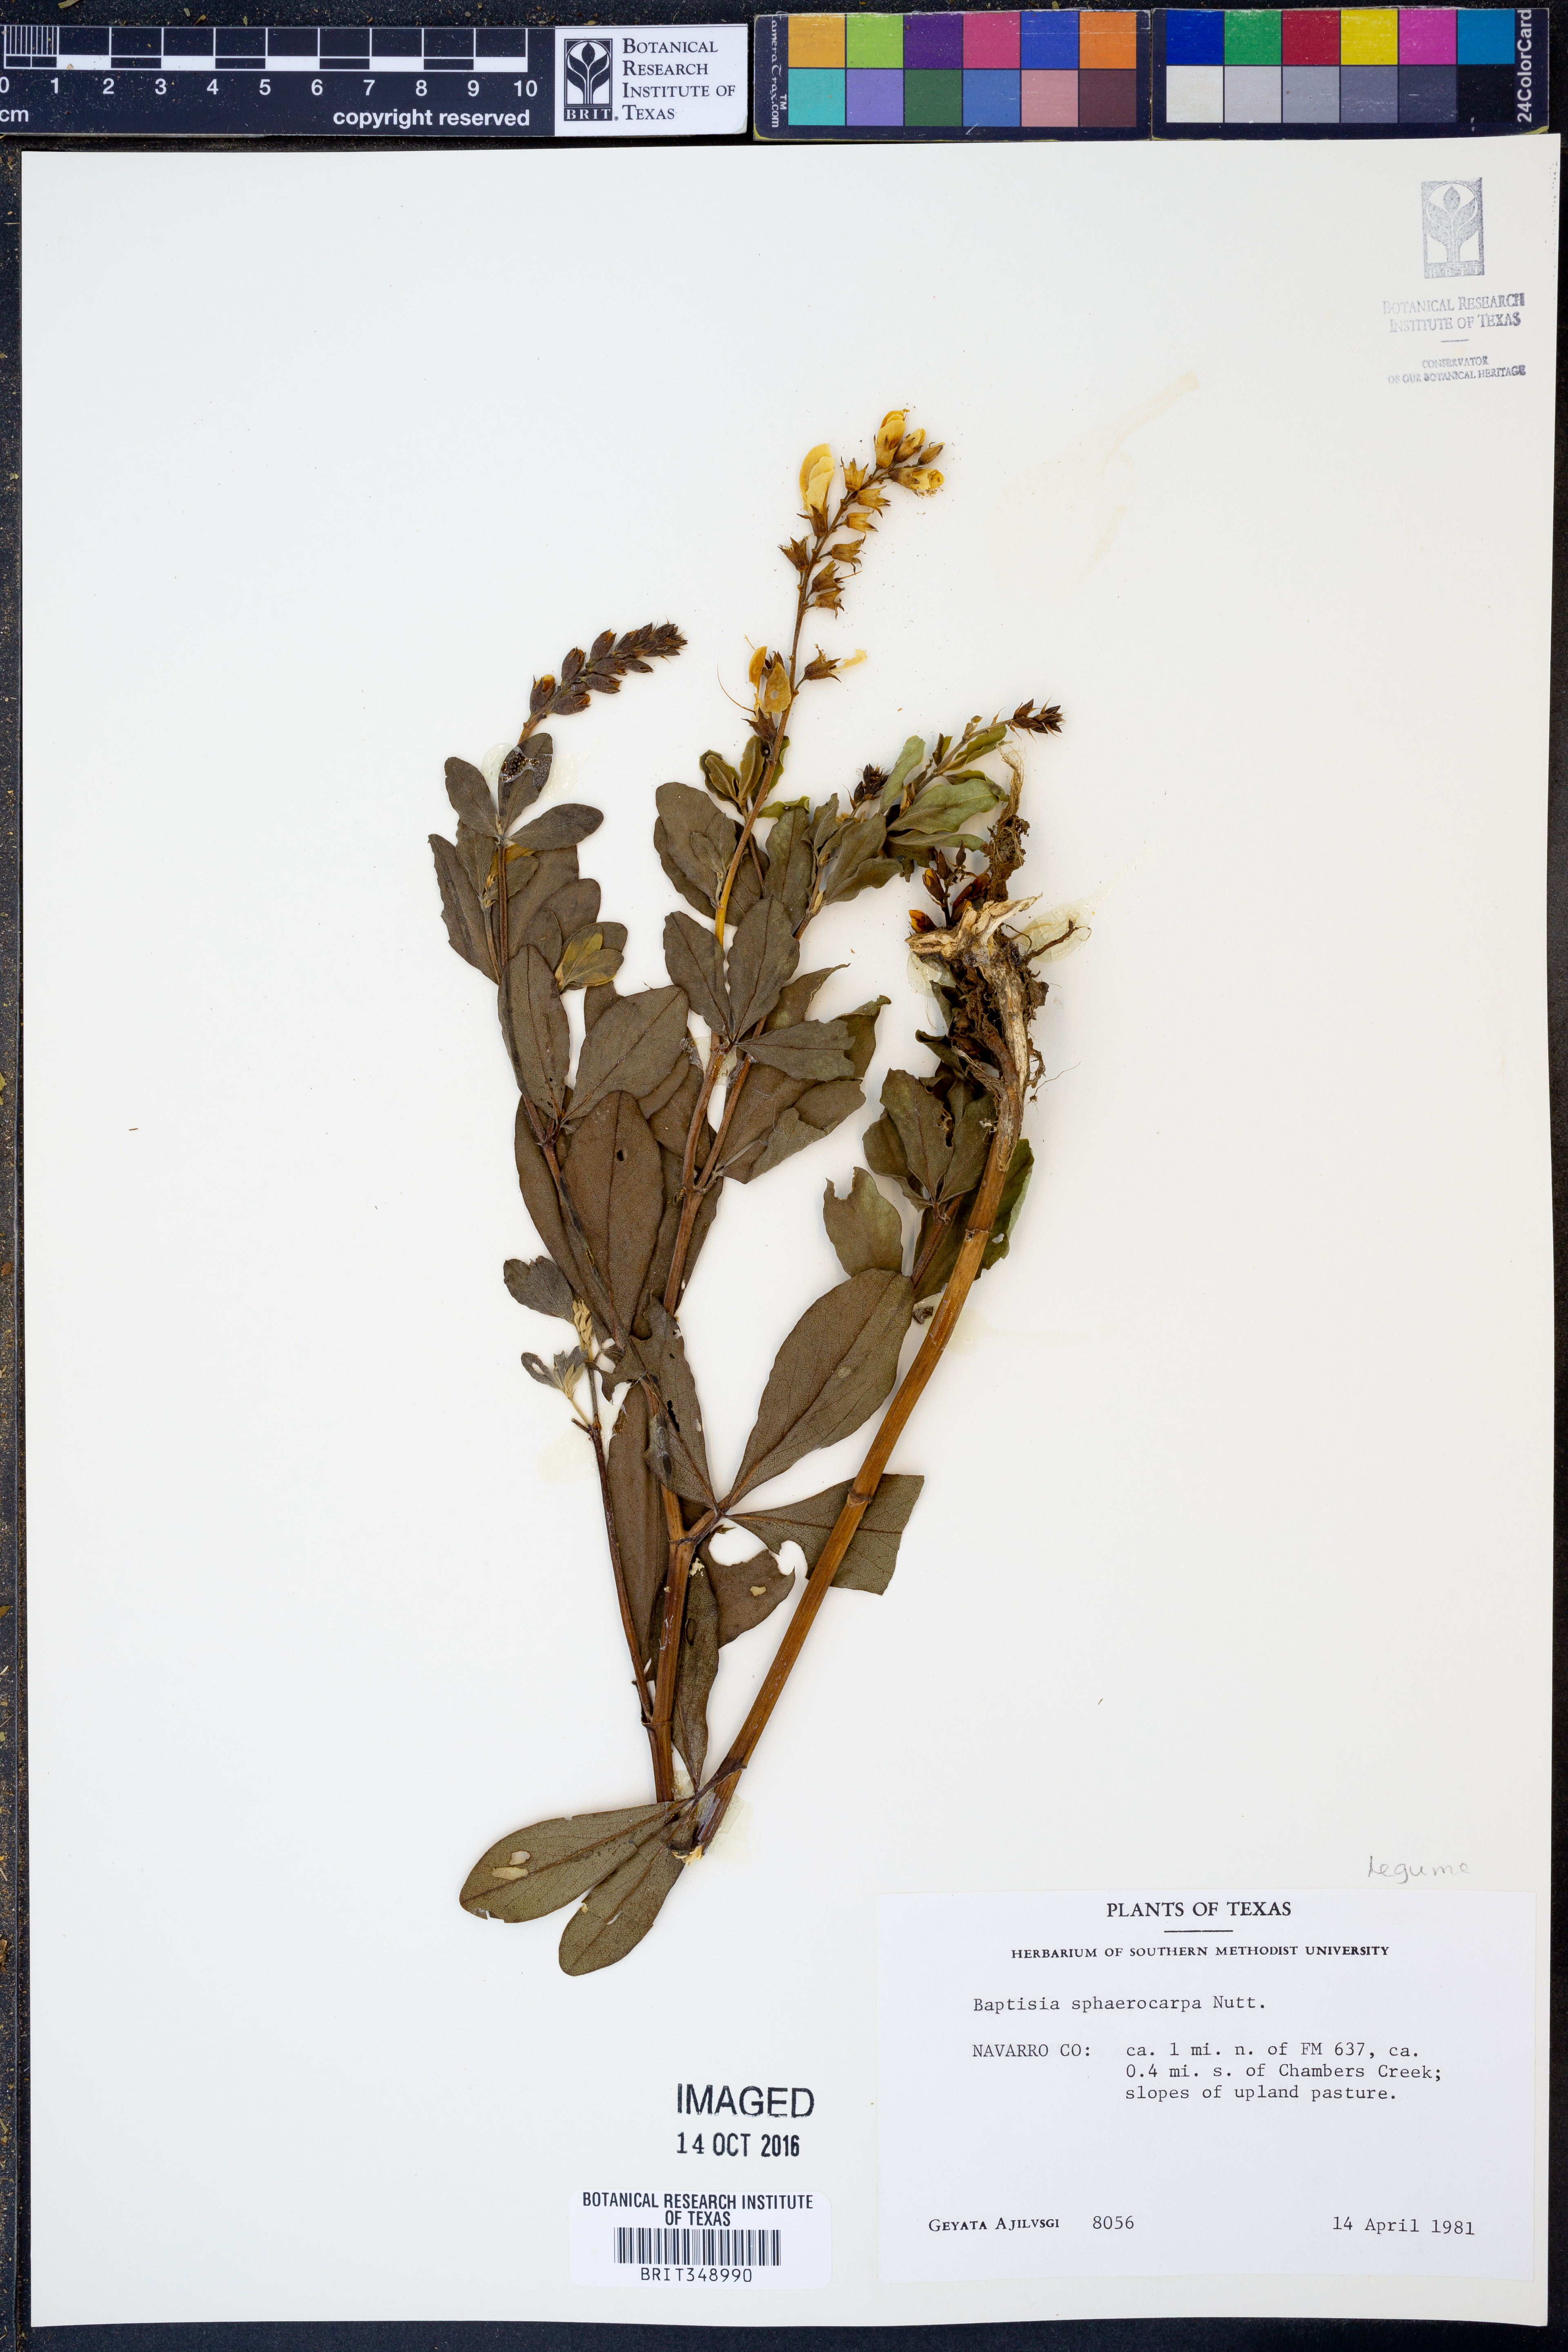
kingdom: Plantae
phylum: Tracheophyta
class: Magnoliopsida
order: Fabales
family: Fabaceae
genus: Baptisia
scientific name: Baptisia sphaerocarpa
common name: Round wild indigo
